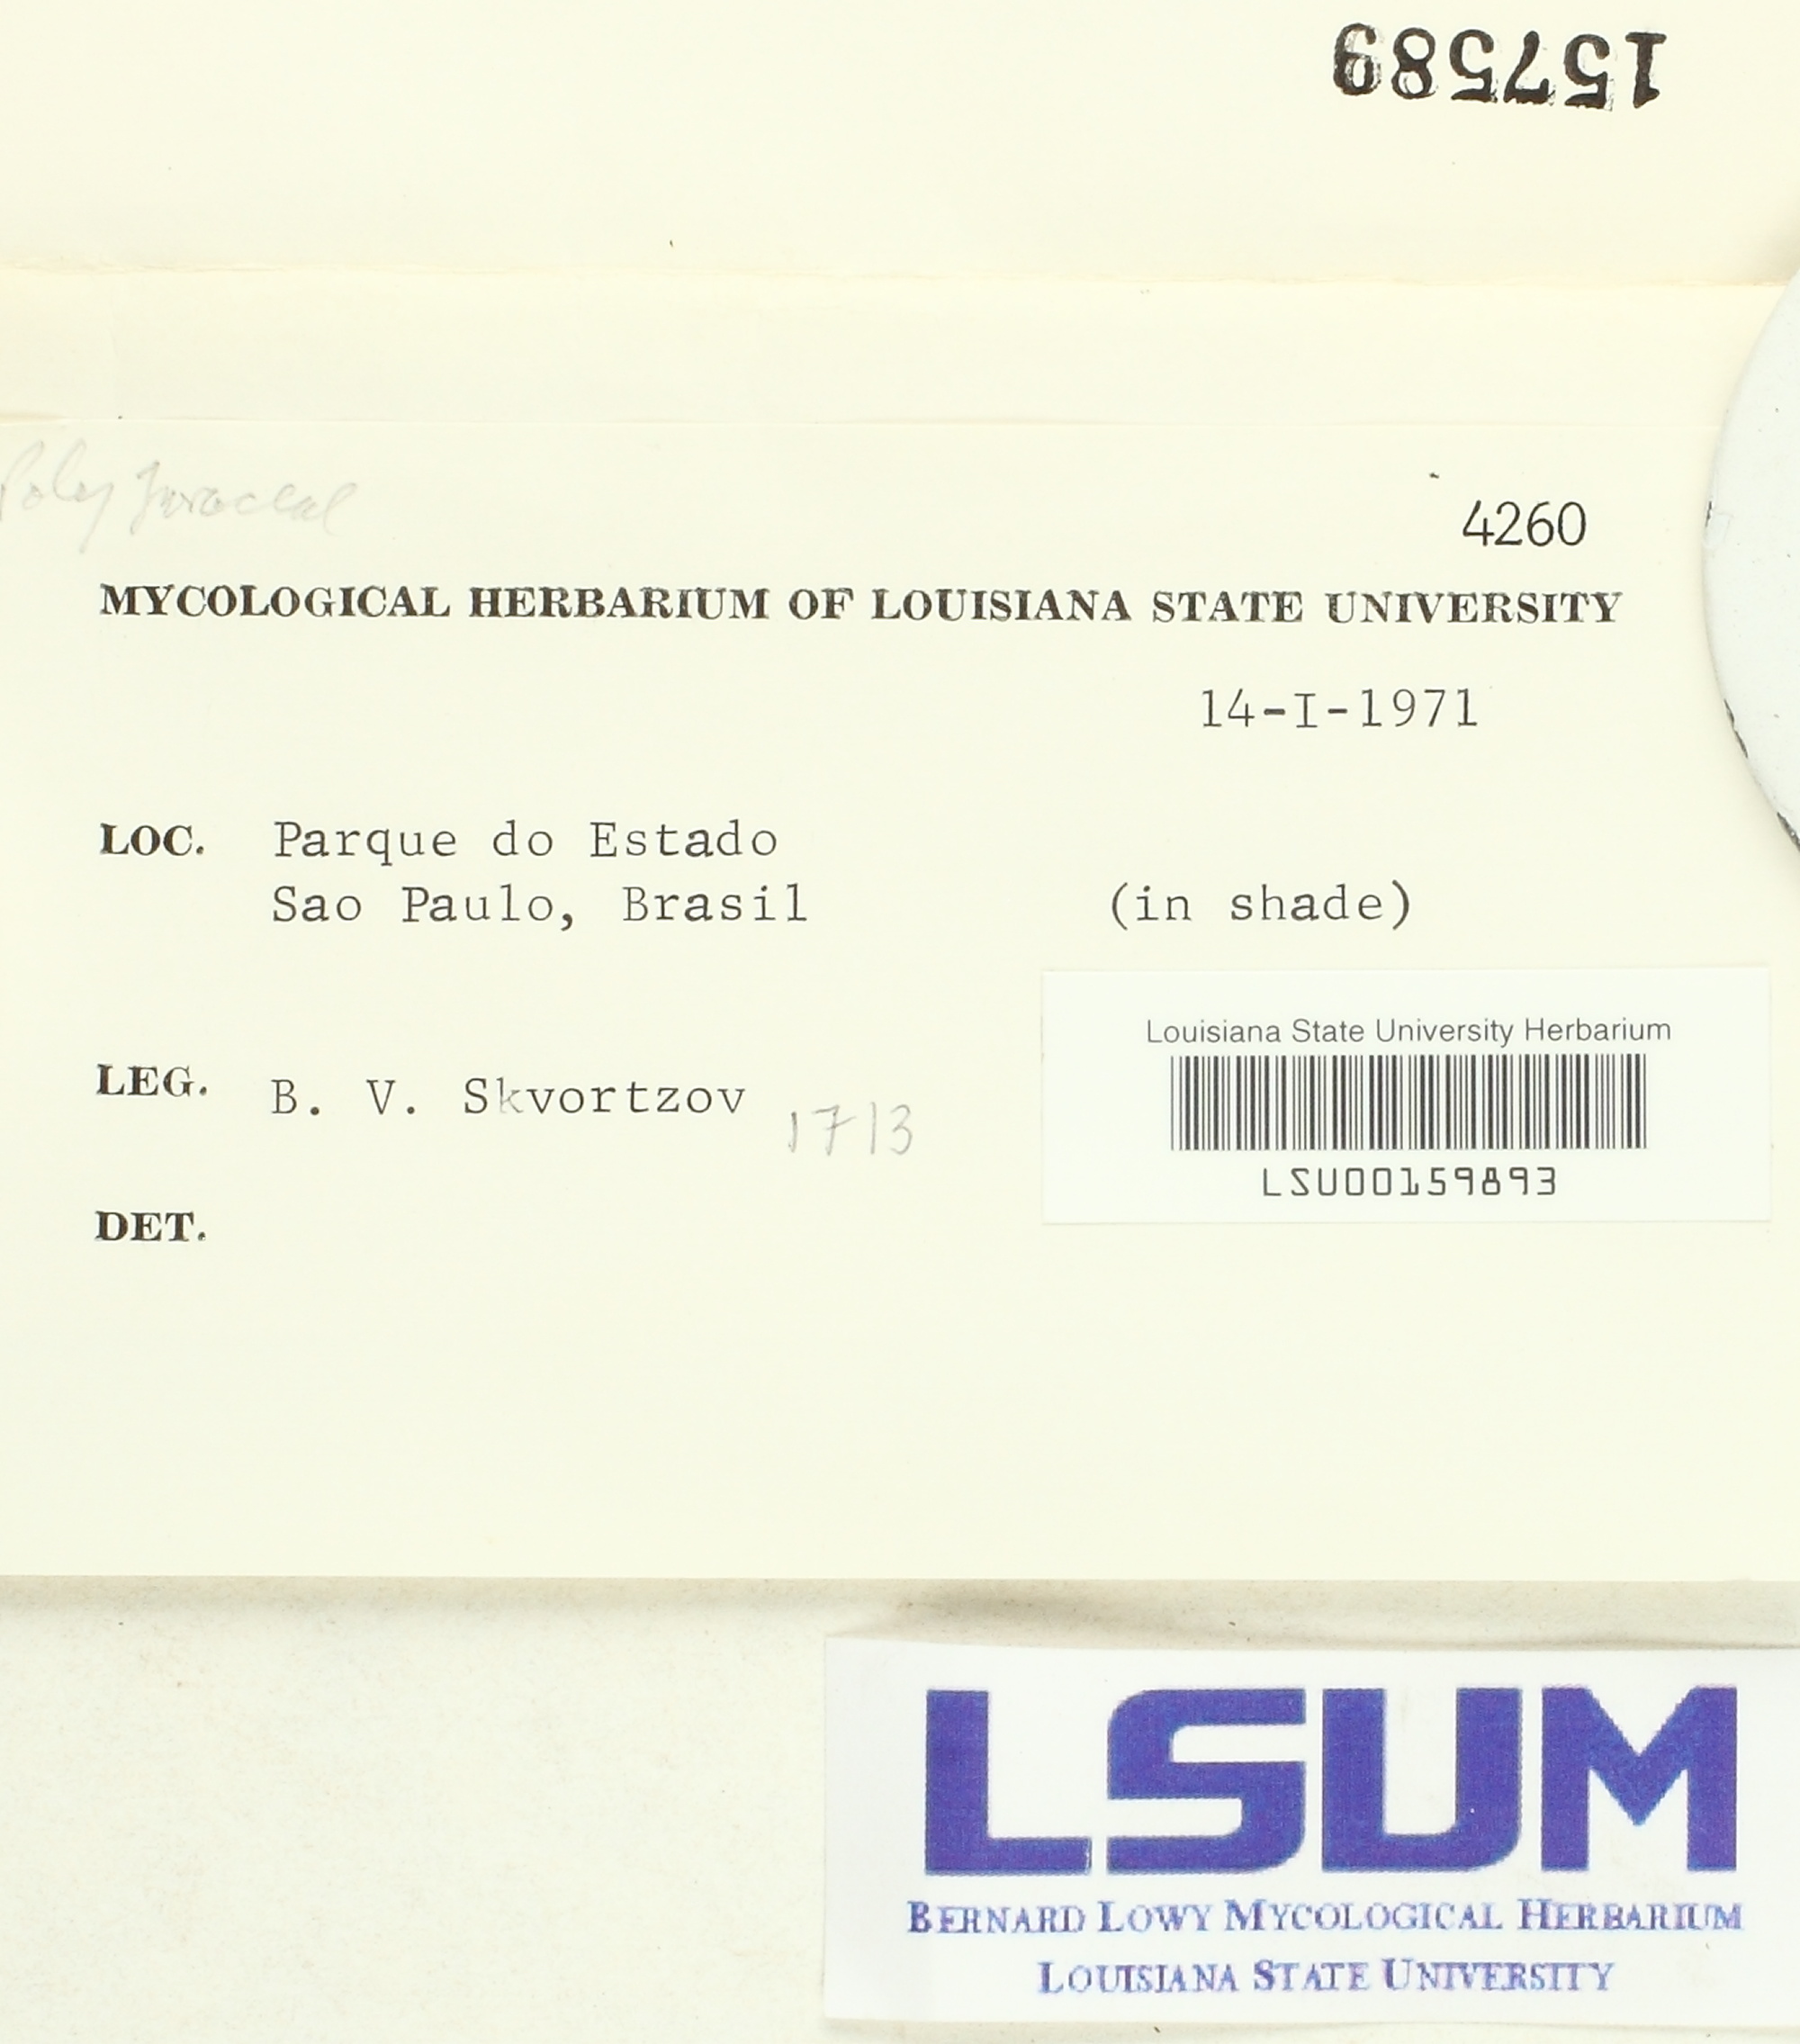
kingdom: Fungi
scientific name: Fungi
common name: Fungi
